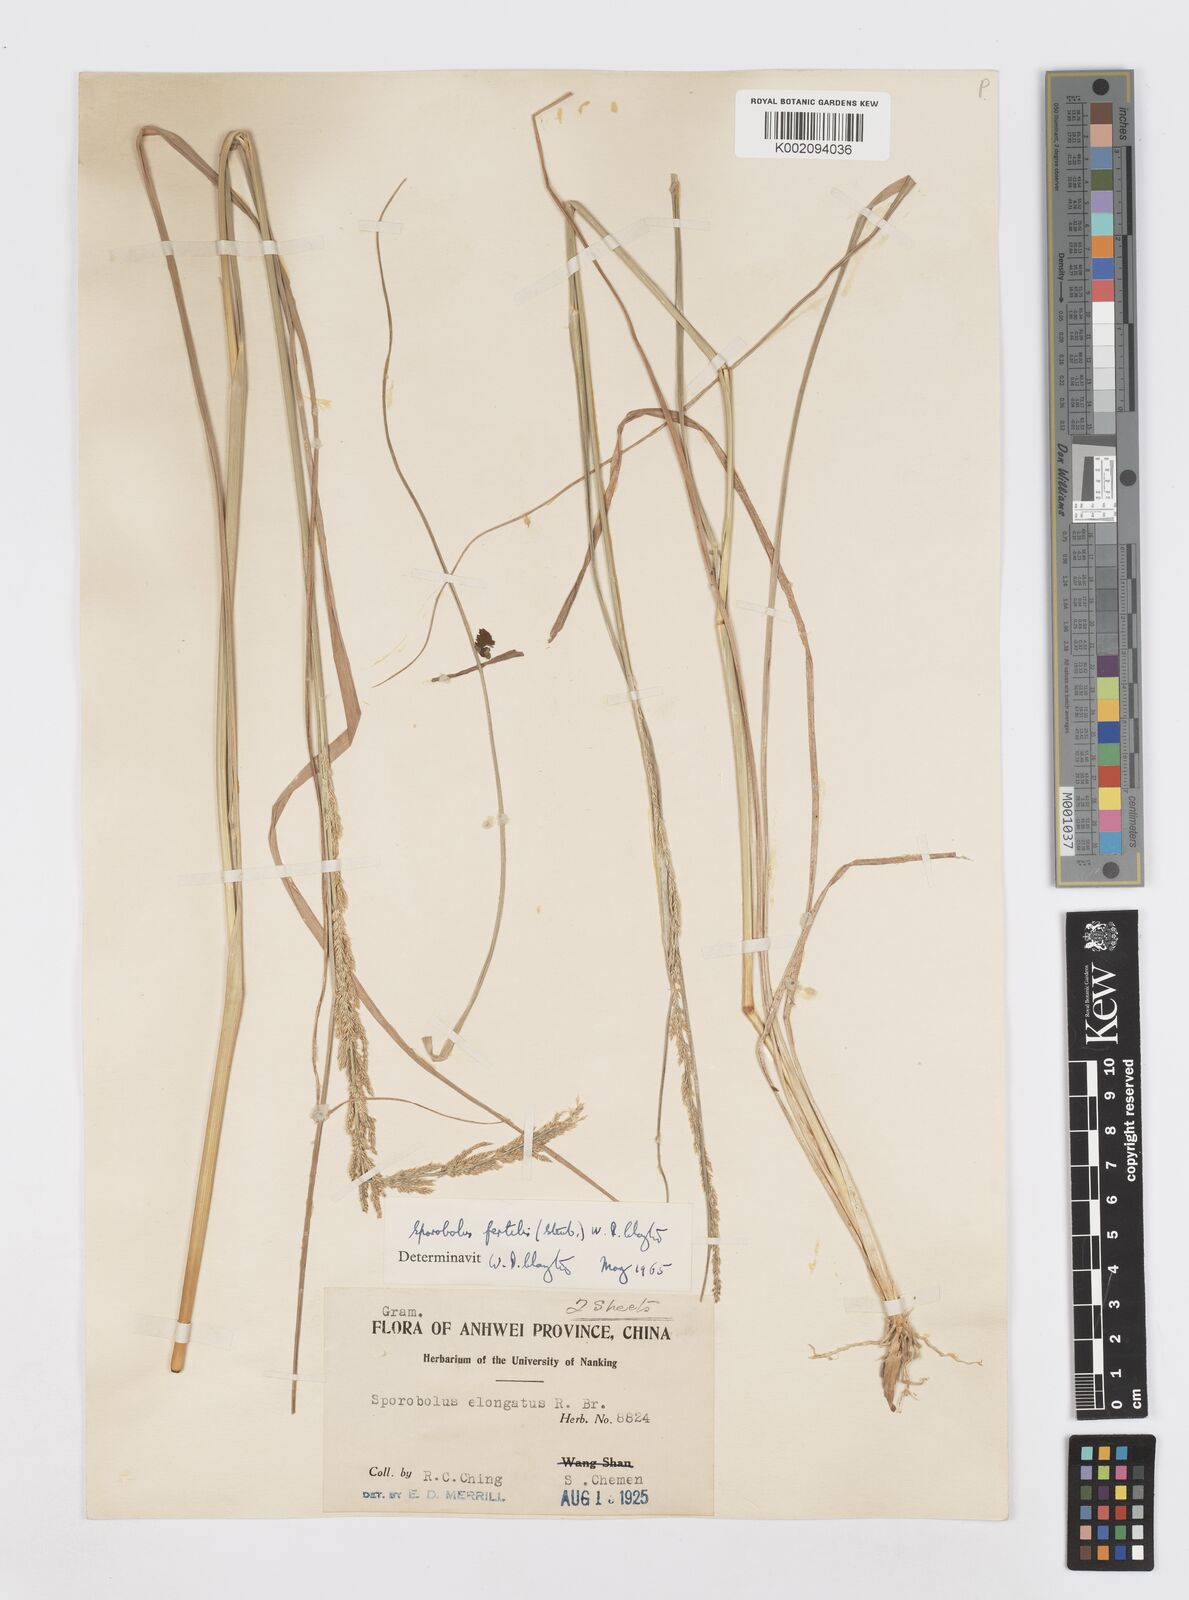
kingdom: Plantae
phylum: Tracheophyta
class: Liliopsida
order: Poales
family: Poaceae
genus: Sporobolus
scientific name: Sporobolus fertilis
